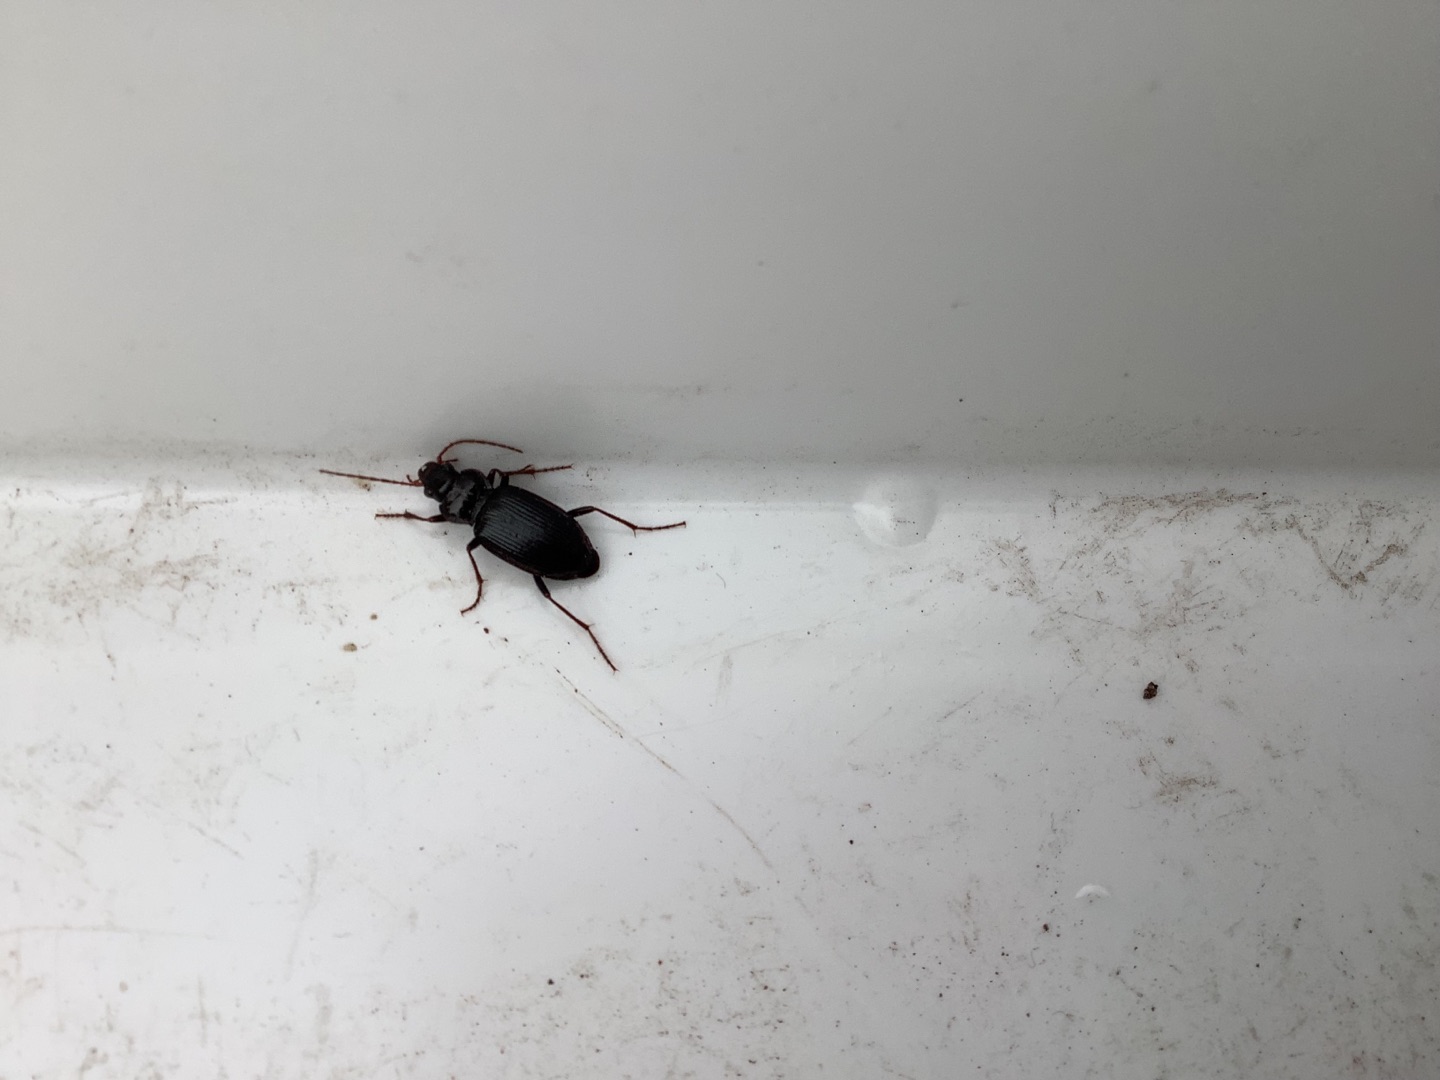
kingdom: Animalia
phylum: Arthropoda
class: Insecta
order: Coleoptera
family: Carabidae
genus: Nebria
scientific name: Nebria brevicollis
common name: Skovfladløber
